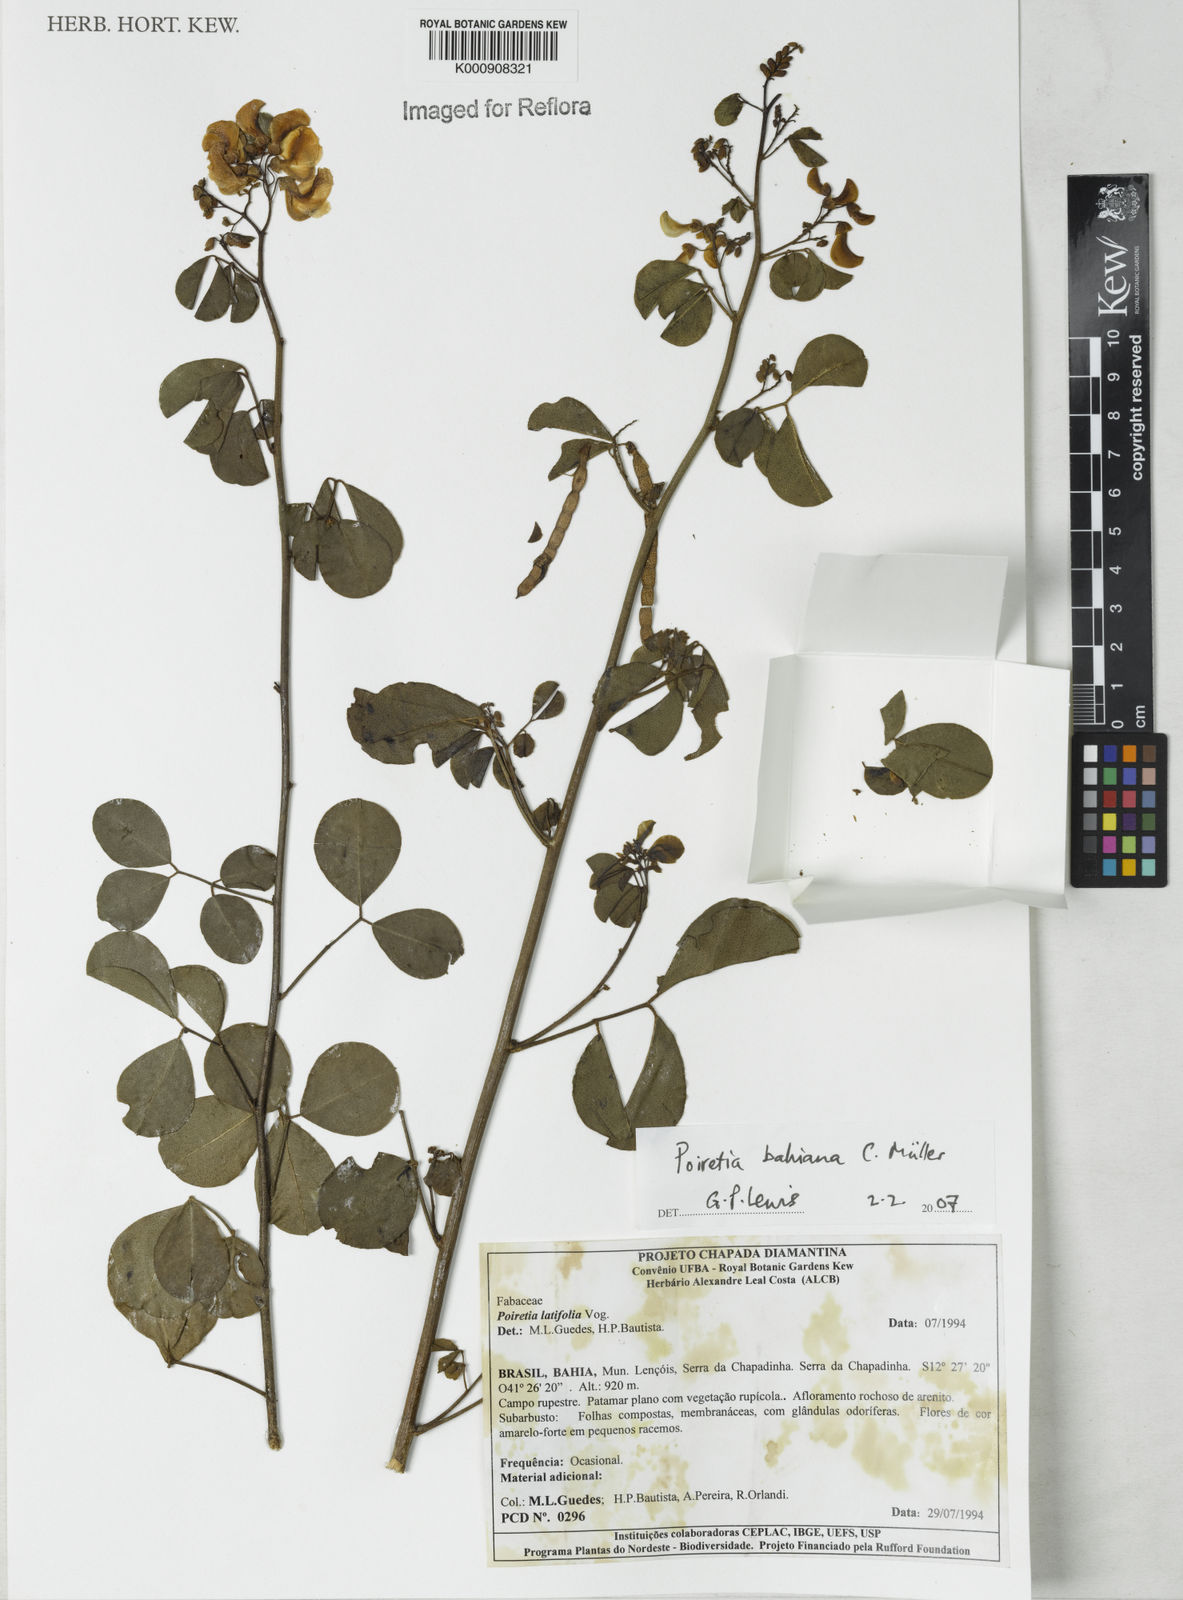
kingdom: Plantae
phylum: Tracheophyta
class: Magnoliopsida
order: Fabales
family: Fabaceae
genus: Poiretia
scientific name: Poiretia
